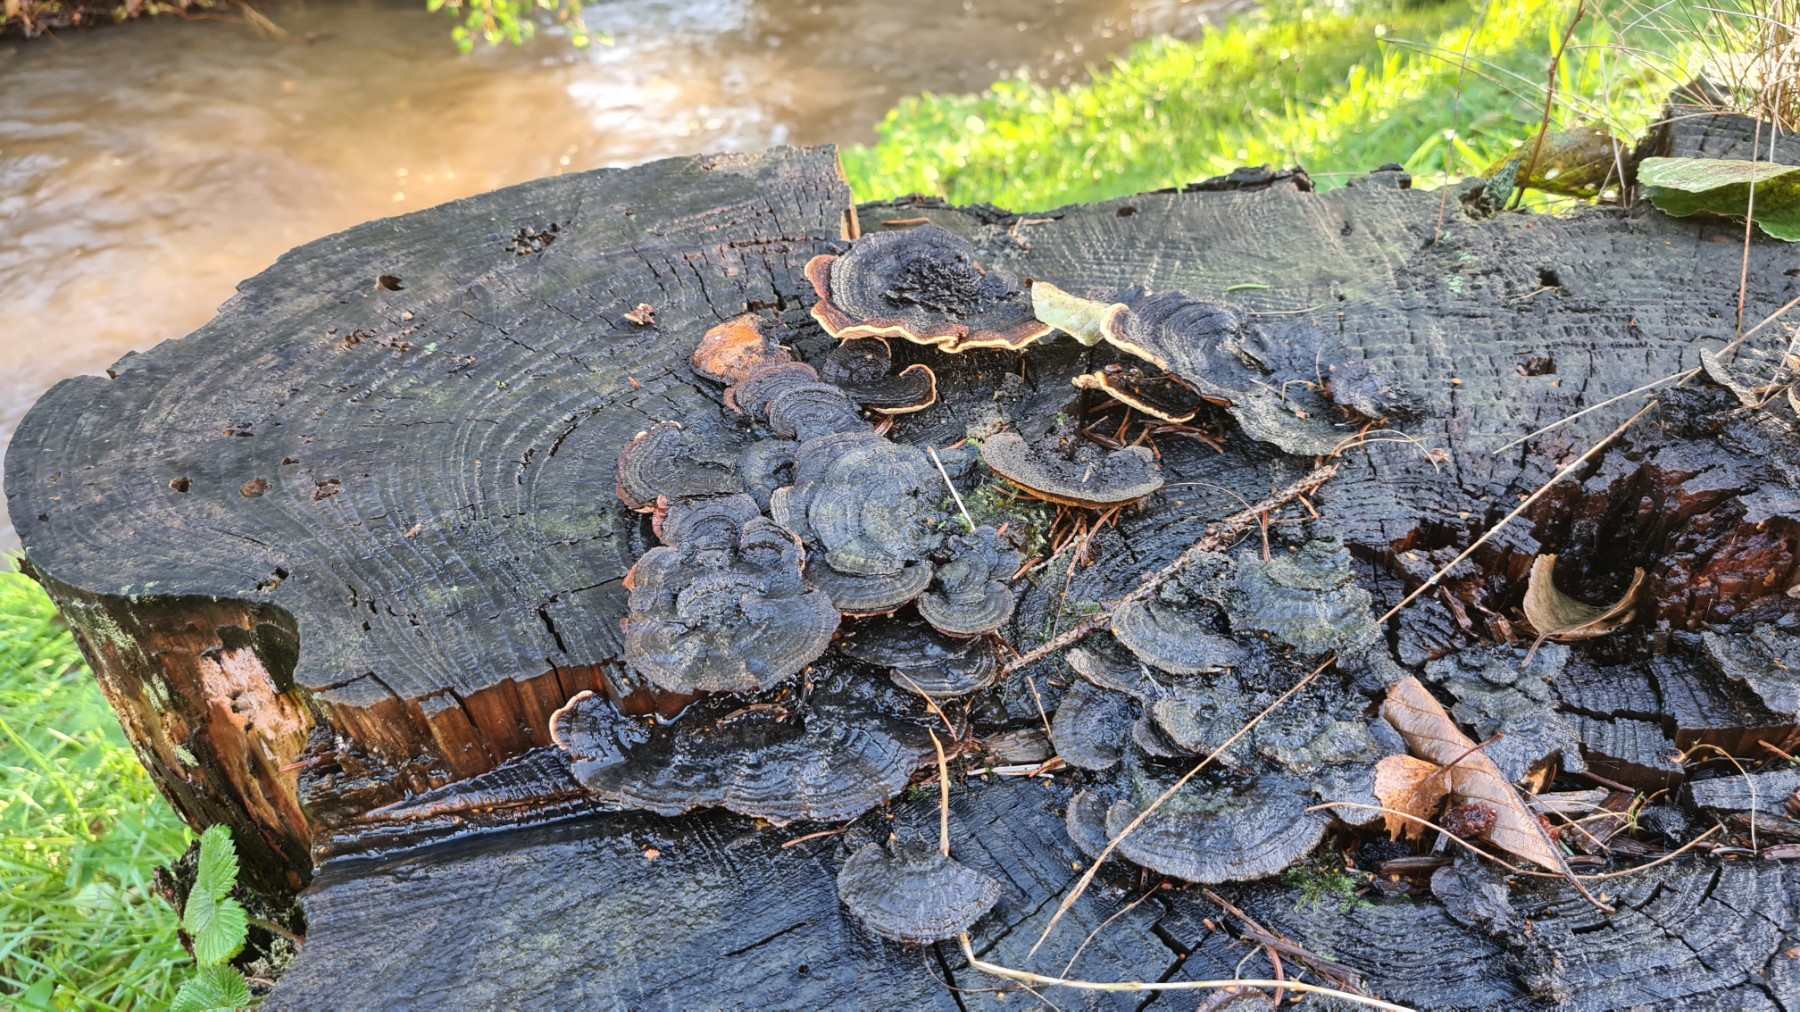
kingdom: Fungi
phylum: Basidiomycota
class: Agaricomycetes
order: Gloeophyllales
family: Gloeophyllaceae
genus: Gloeophyllum
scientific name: Gloeophyllum sepiarium
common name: fyrre-korkhat
